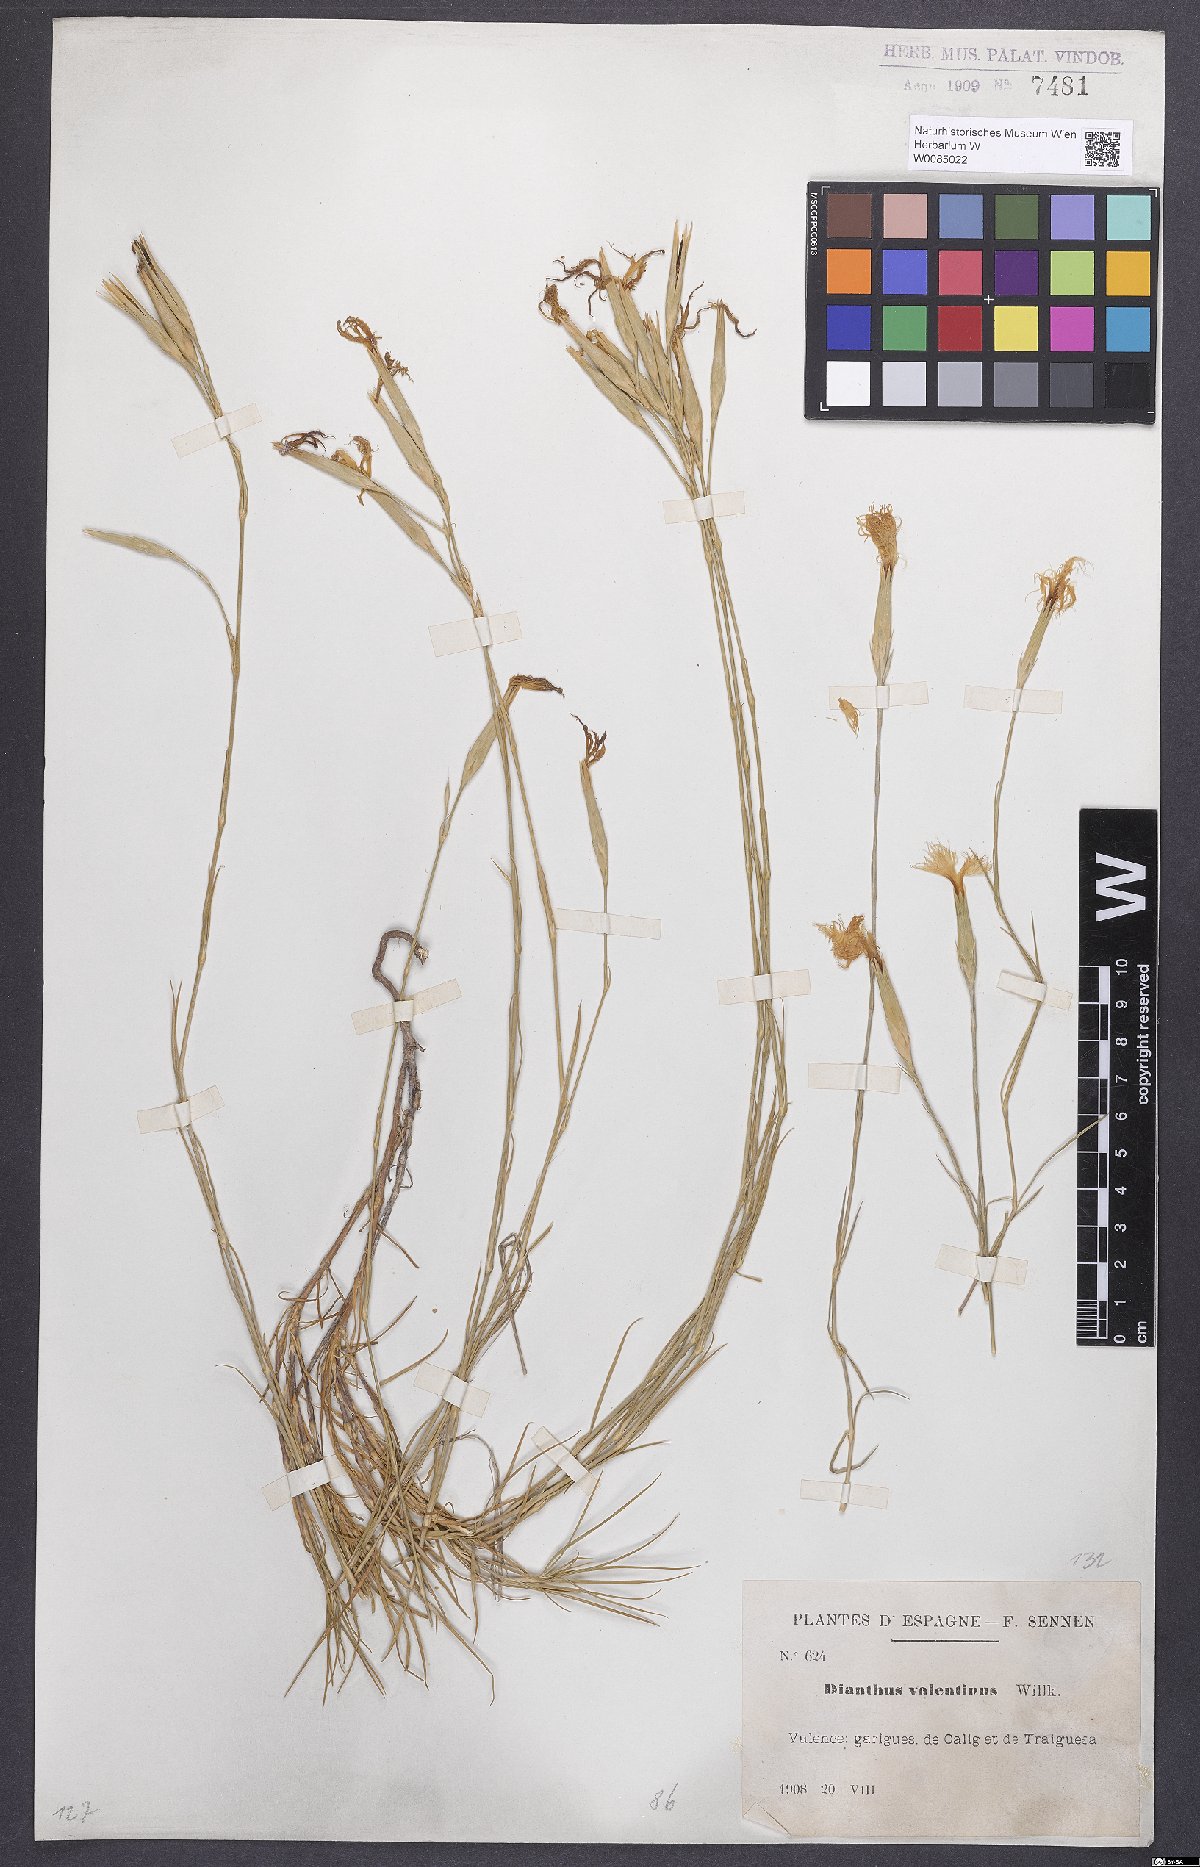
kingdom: Plantae
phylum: Tracheophyta
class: Magnoliopsida
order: Caryophyllales
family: Caryophyllaceae
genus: Dianthus
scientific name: Dianthus broteri
